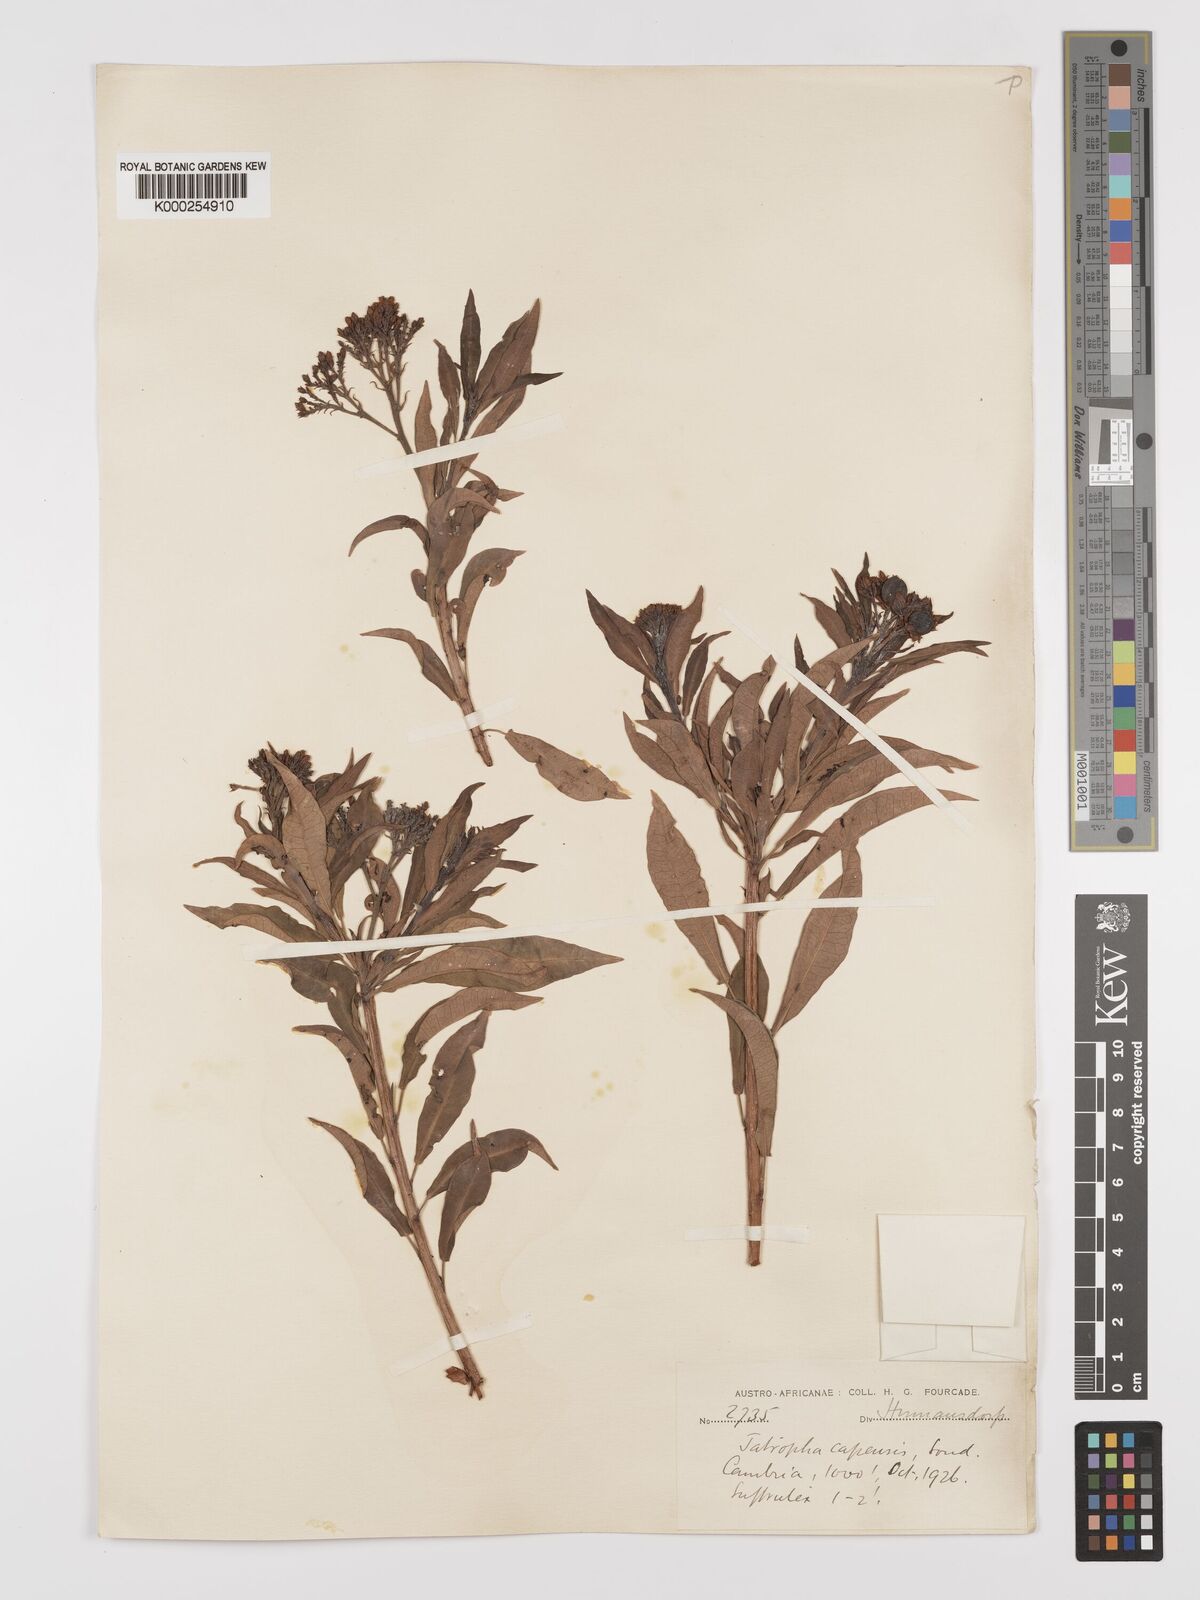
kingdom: Plantae
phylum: Tracheophyta
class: Magnoliopsida
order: Malpighiales
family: Euphorbiaceae
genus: Jatropha
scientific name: Jatropha capensis
